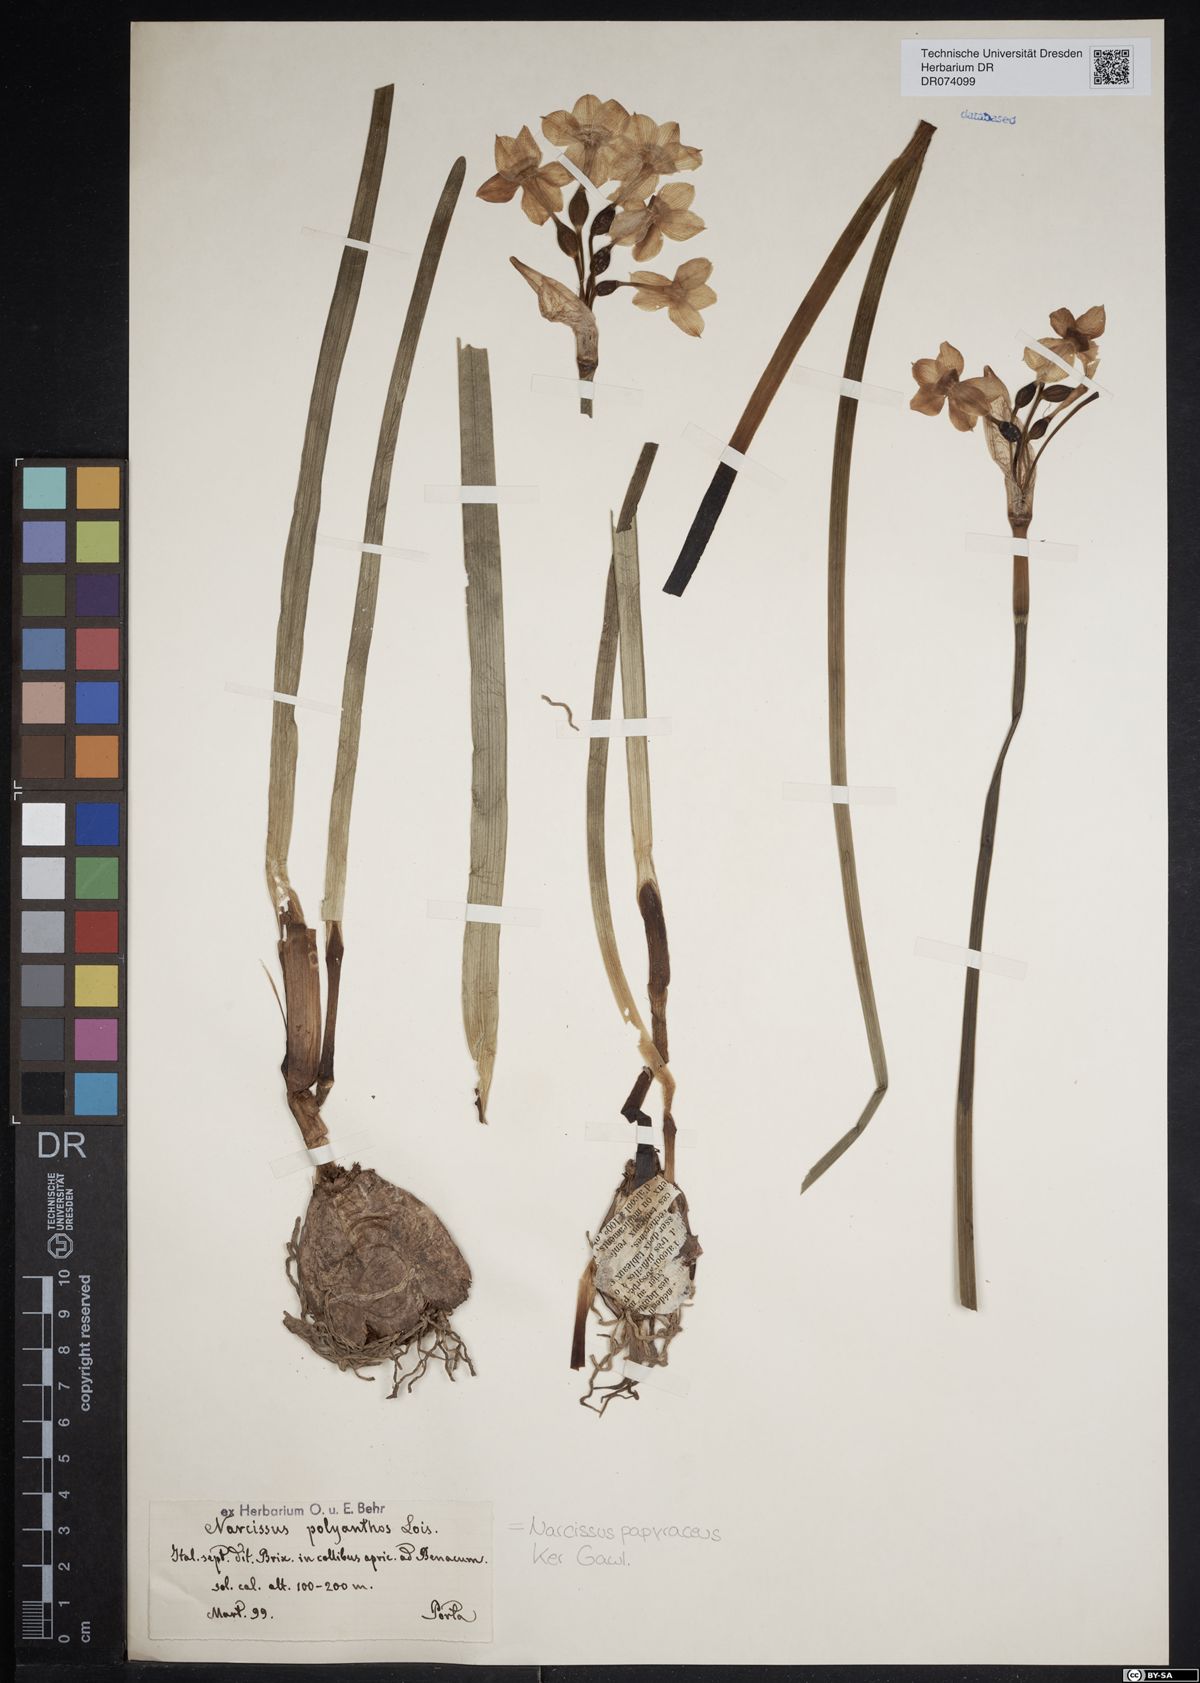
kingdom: Plantae
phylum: Tracheophyta
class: Liliopsida
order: Asparagales
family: Amaryllidaceae
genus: Narcissus
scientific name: Narcissus papyraceus
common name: Paper-white daffodil
